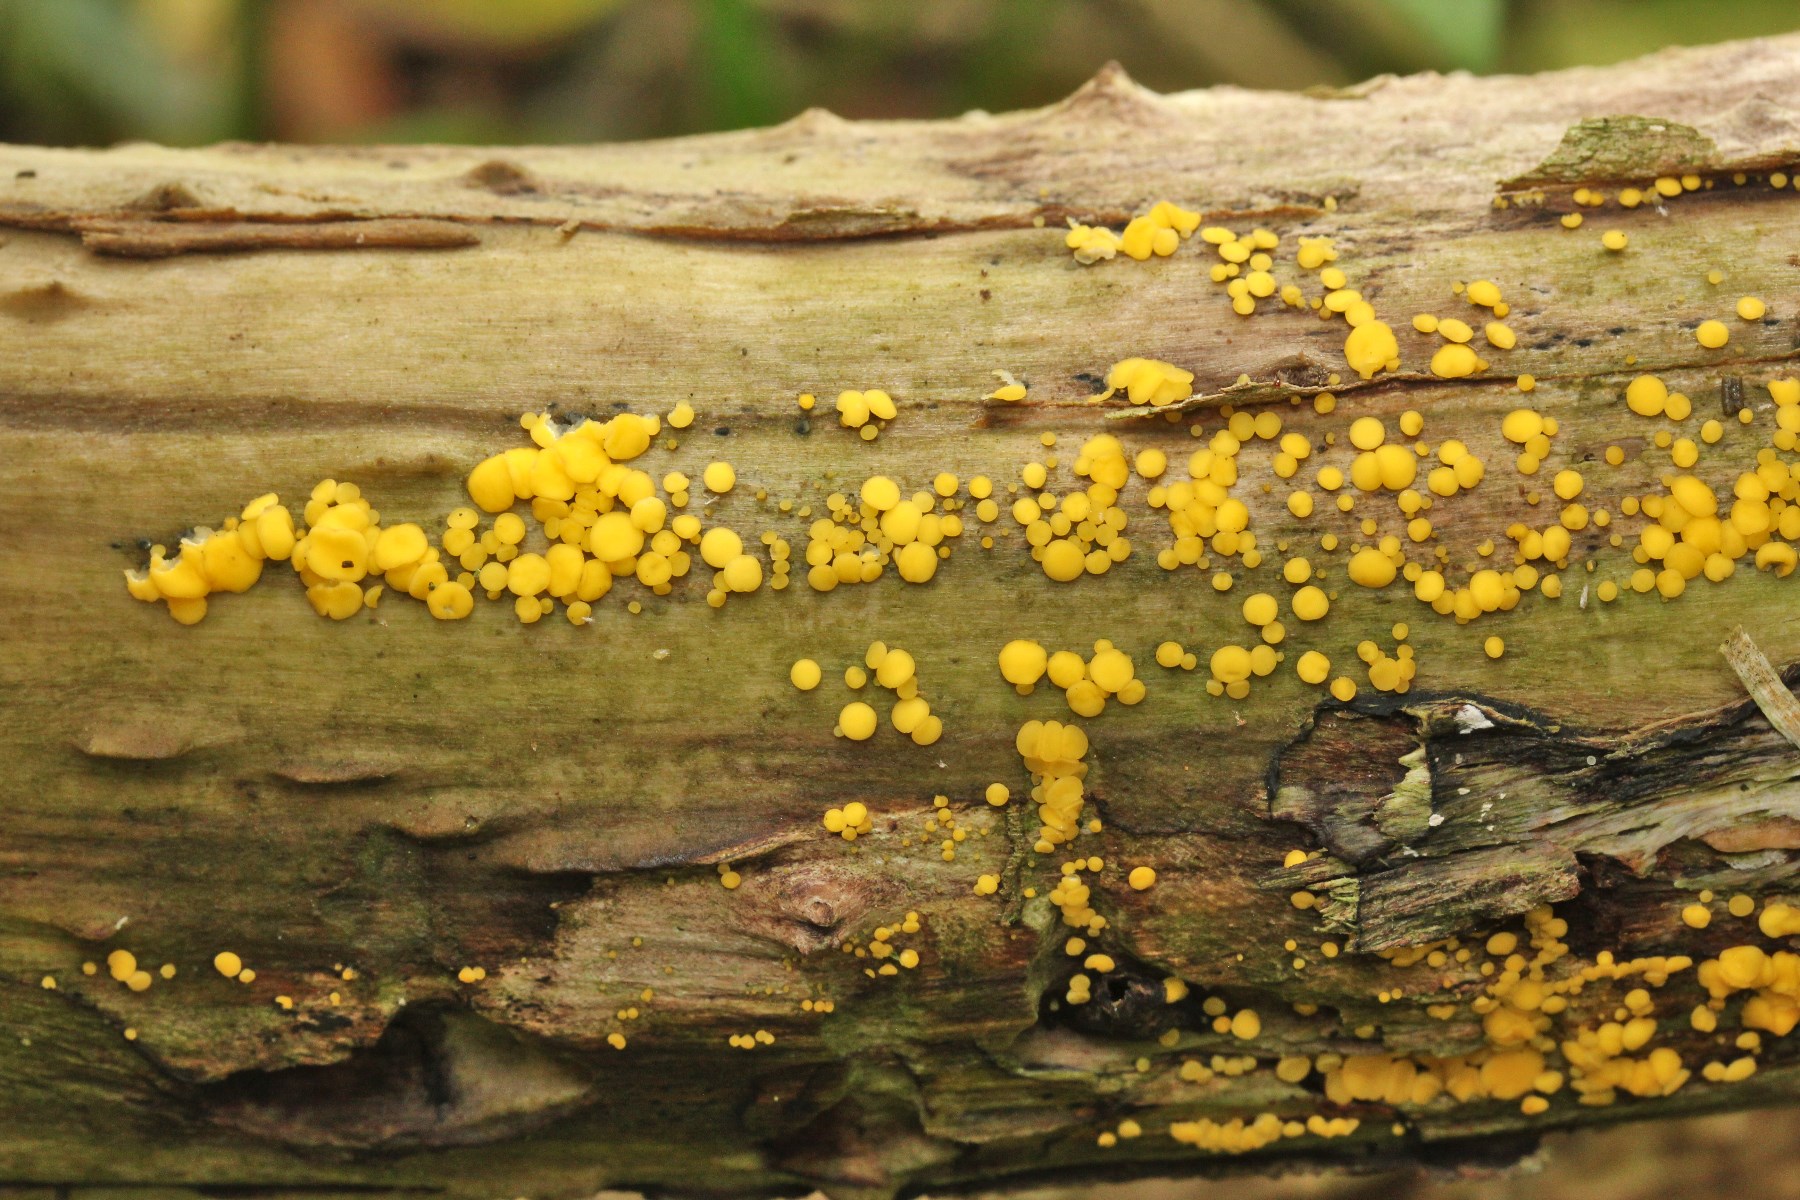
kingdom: Fungi
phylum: Ascomycota
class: Leotiomycetes
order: Helotiales
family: Pezizellaceae
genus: Calycina
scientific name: Calycina citrina
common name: almindelig gulskive
